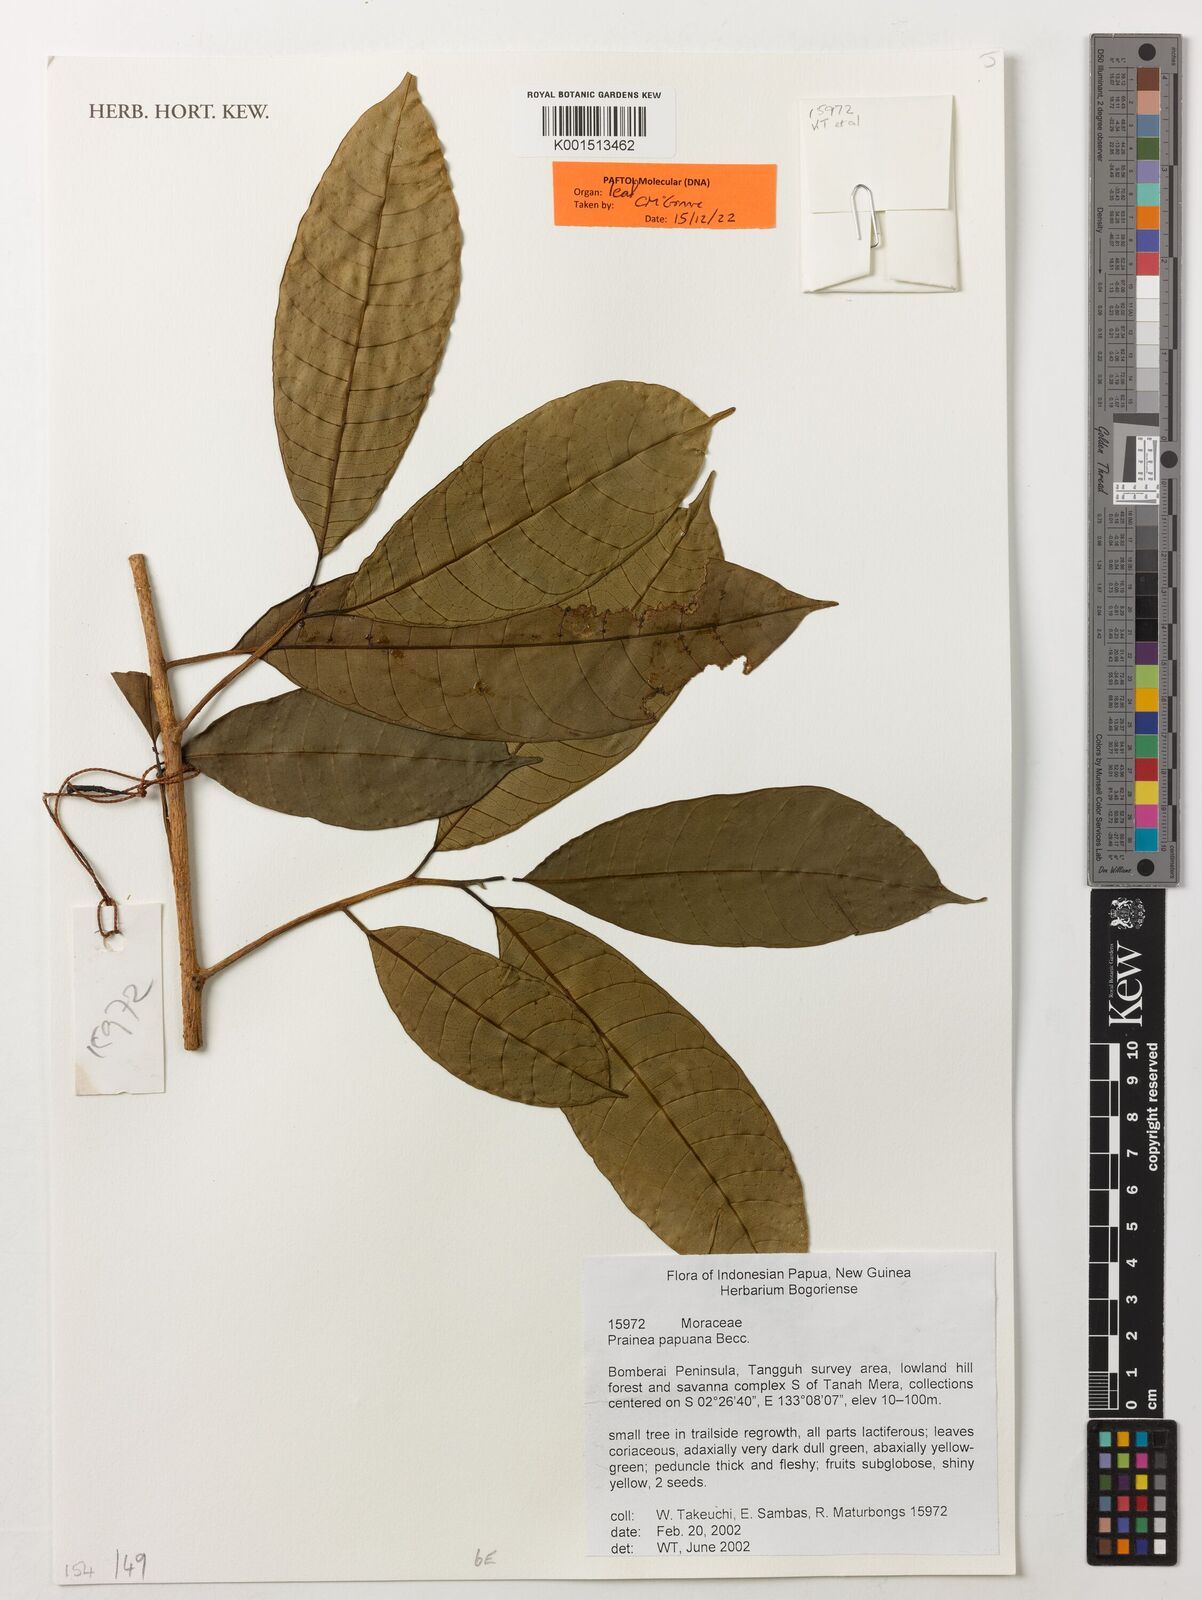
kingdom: Plantae
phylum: Tracheophyta
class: Magnoliopsida
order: Rosales
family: Moraceae
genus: Prainea
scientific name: Prainea limpato
